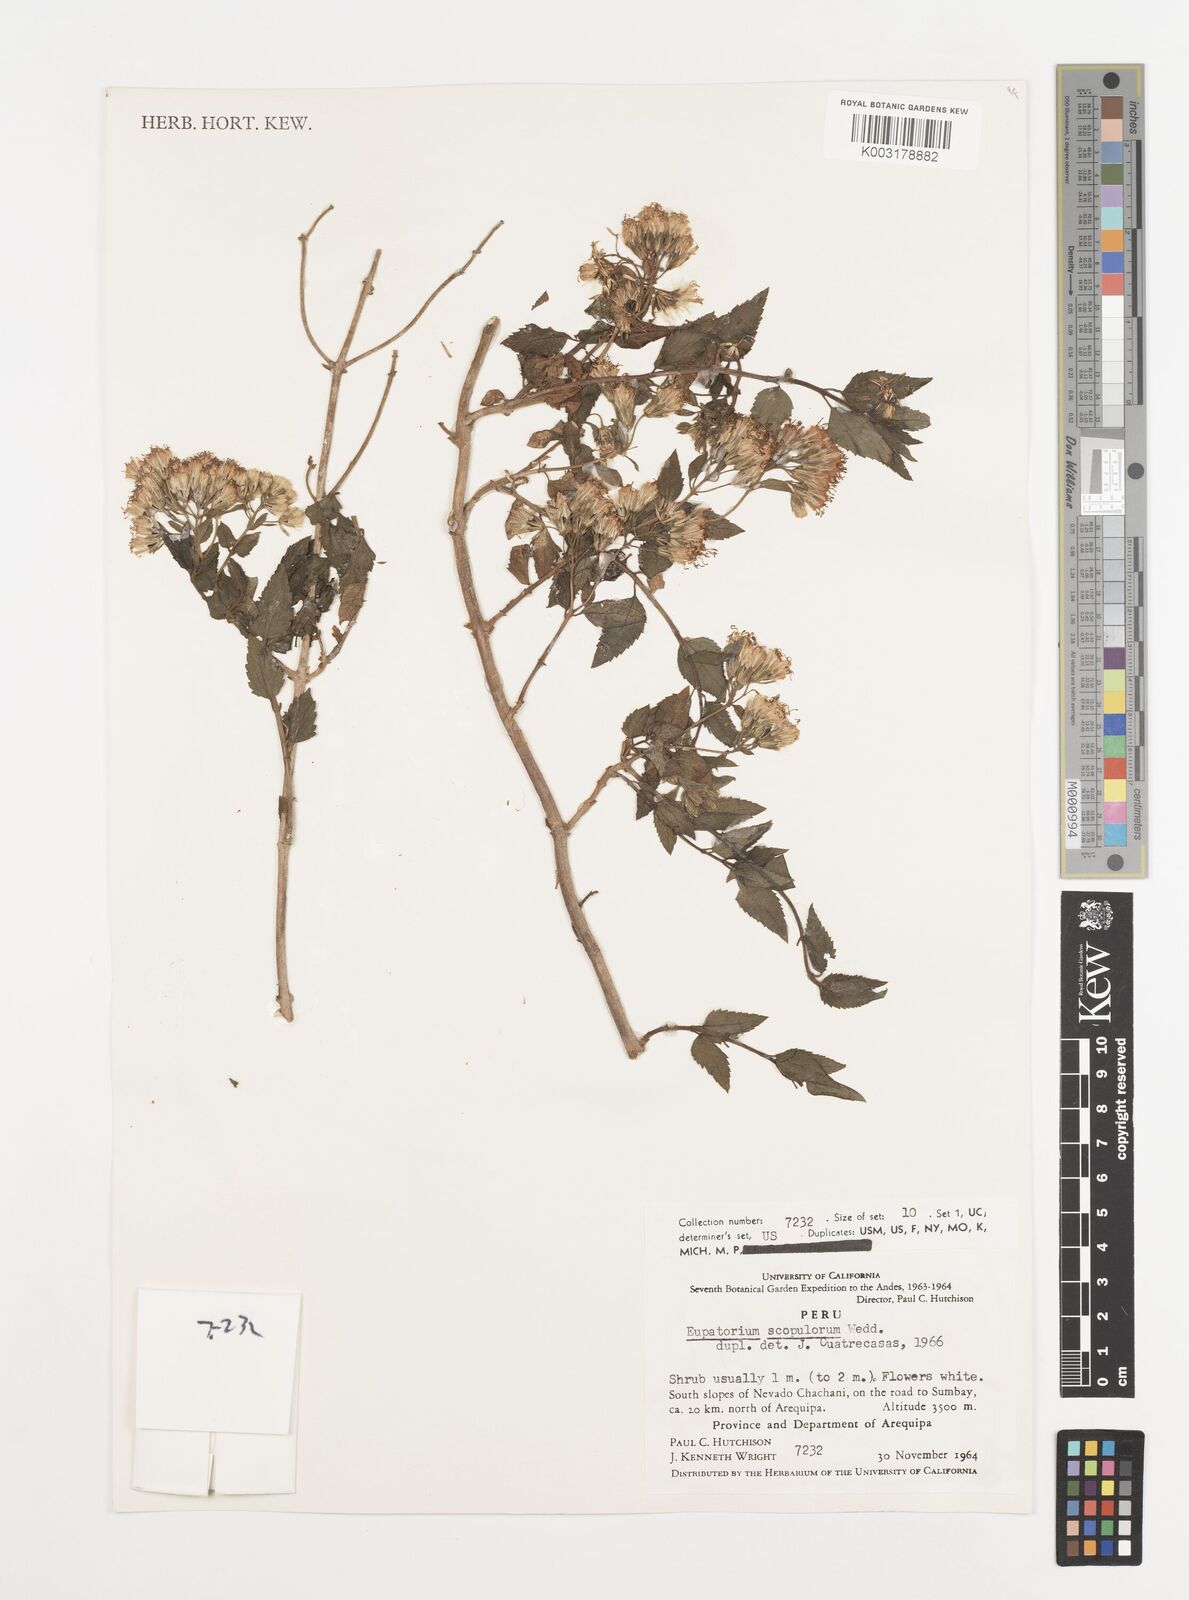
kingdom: Plantae
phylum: Tracheophyta
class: Magnoliopsida
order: Asterales
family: Asteraceae
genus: Ageratina
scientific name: Ageratina scopulorum
